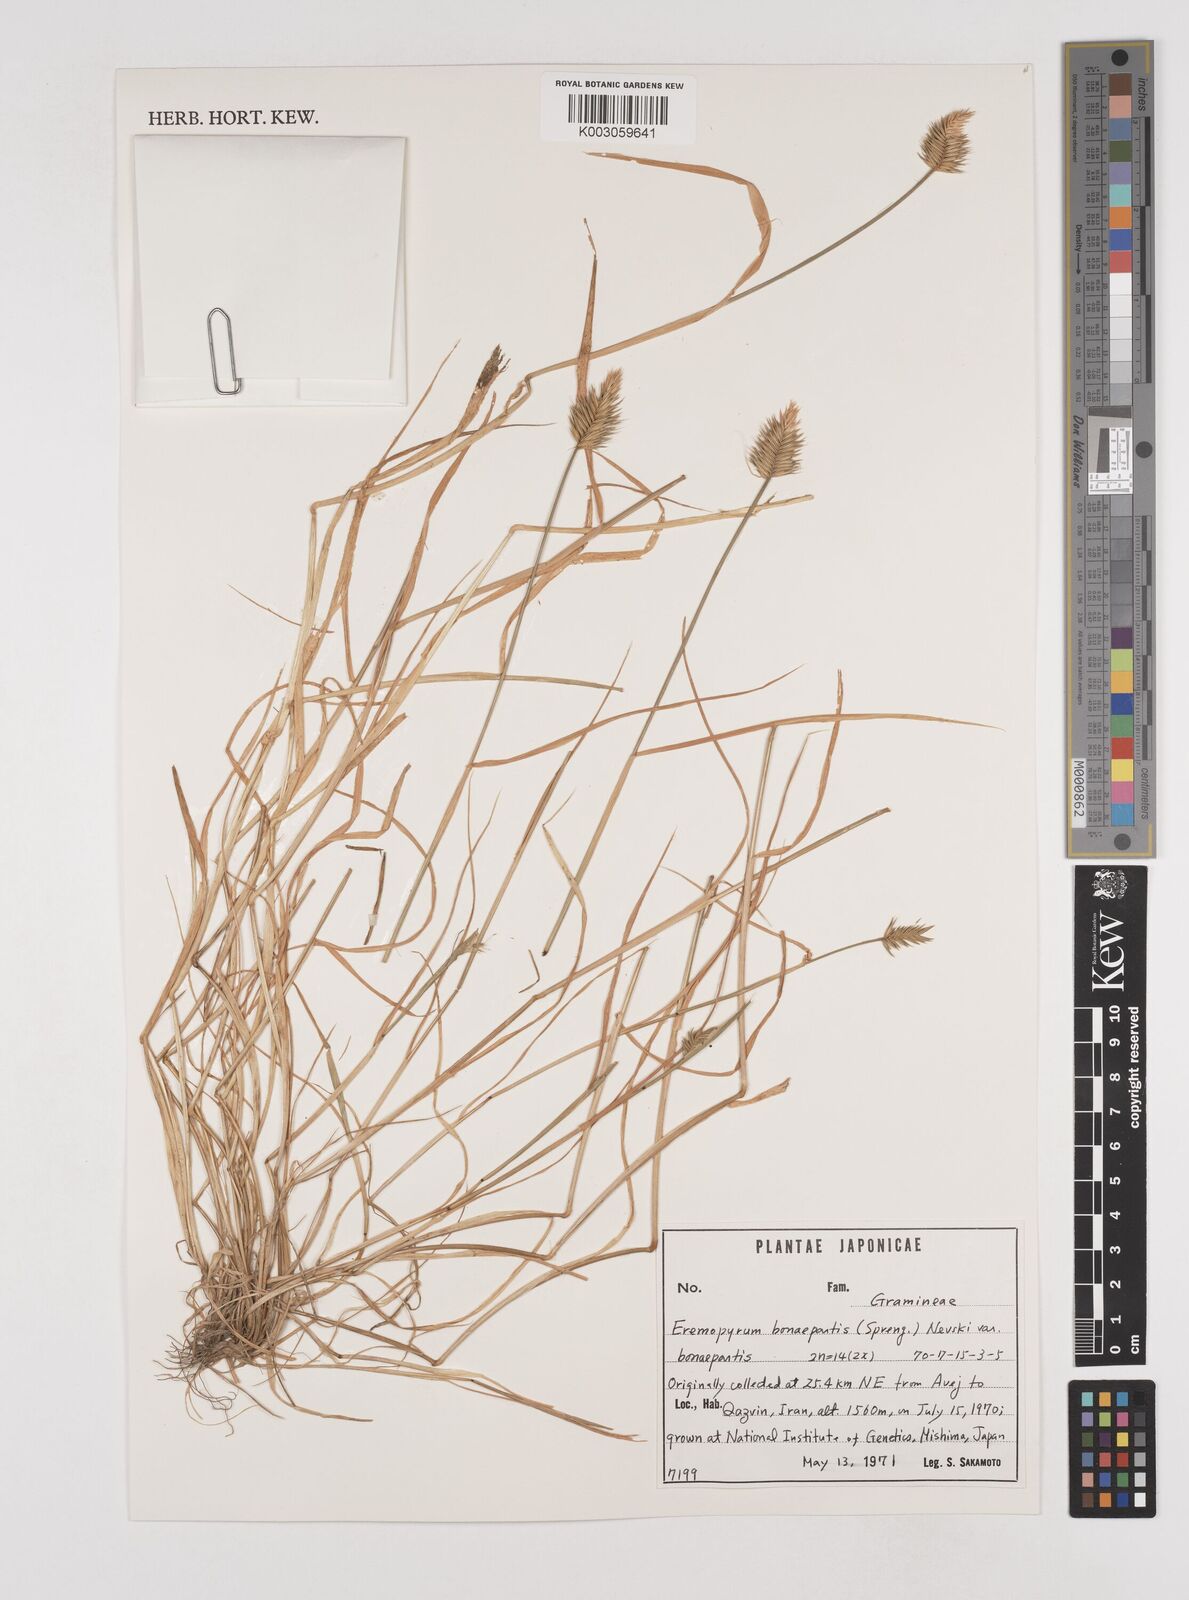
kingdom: Plantae
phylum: Tracheophyta
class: Liliopsida
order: Poales
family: Poaceae
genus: Eremopyrum
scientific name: Eremopyrum bonaepartis
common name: Tapertip false wheatgrass
